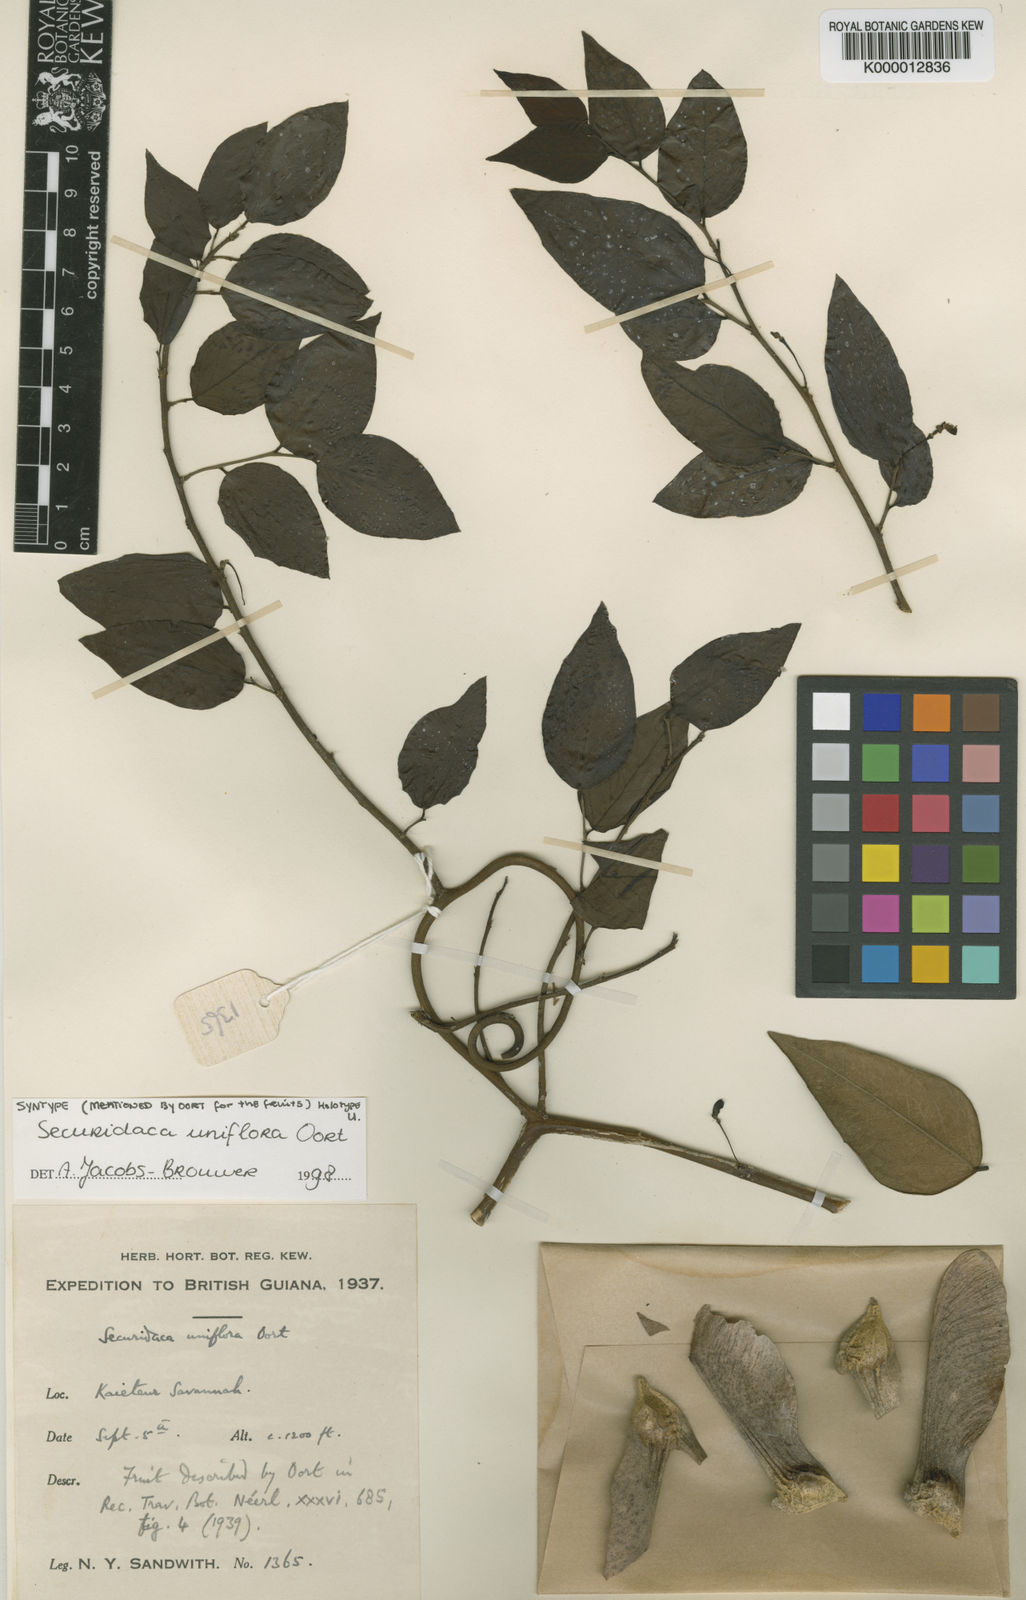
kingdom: Plantae
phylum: Tracheophyta
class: Magnoliopsida
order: Fabales
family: Polygalaceae
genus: Securidaca
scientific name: Securidaca uniflora
